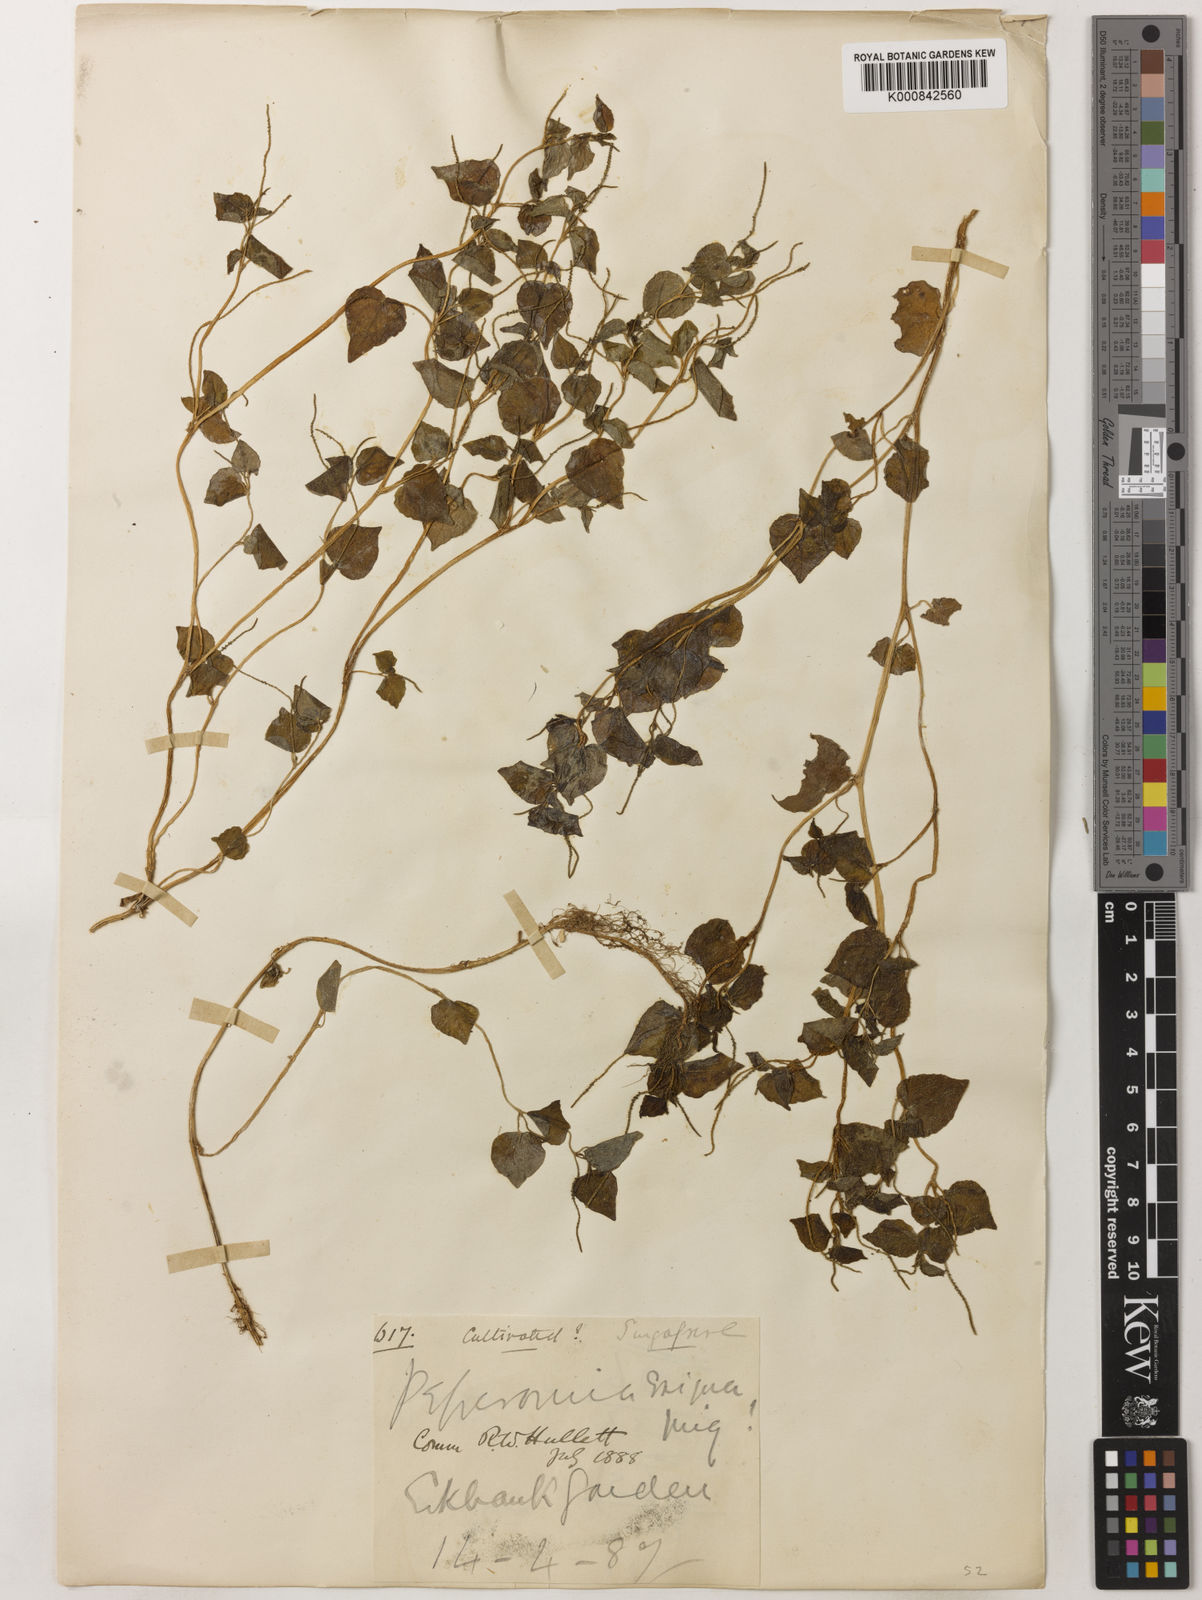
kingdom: Plantae
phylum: Tracheophyta
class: Magnoliopsida
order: Piperales
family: Piperaceae
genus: Peperomia
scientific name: Peperomia pellucida
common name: Man to man
